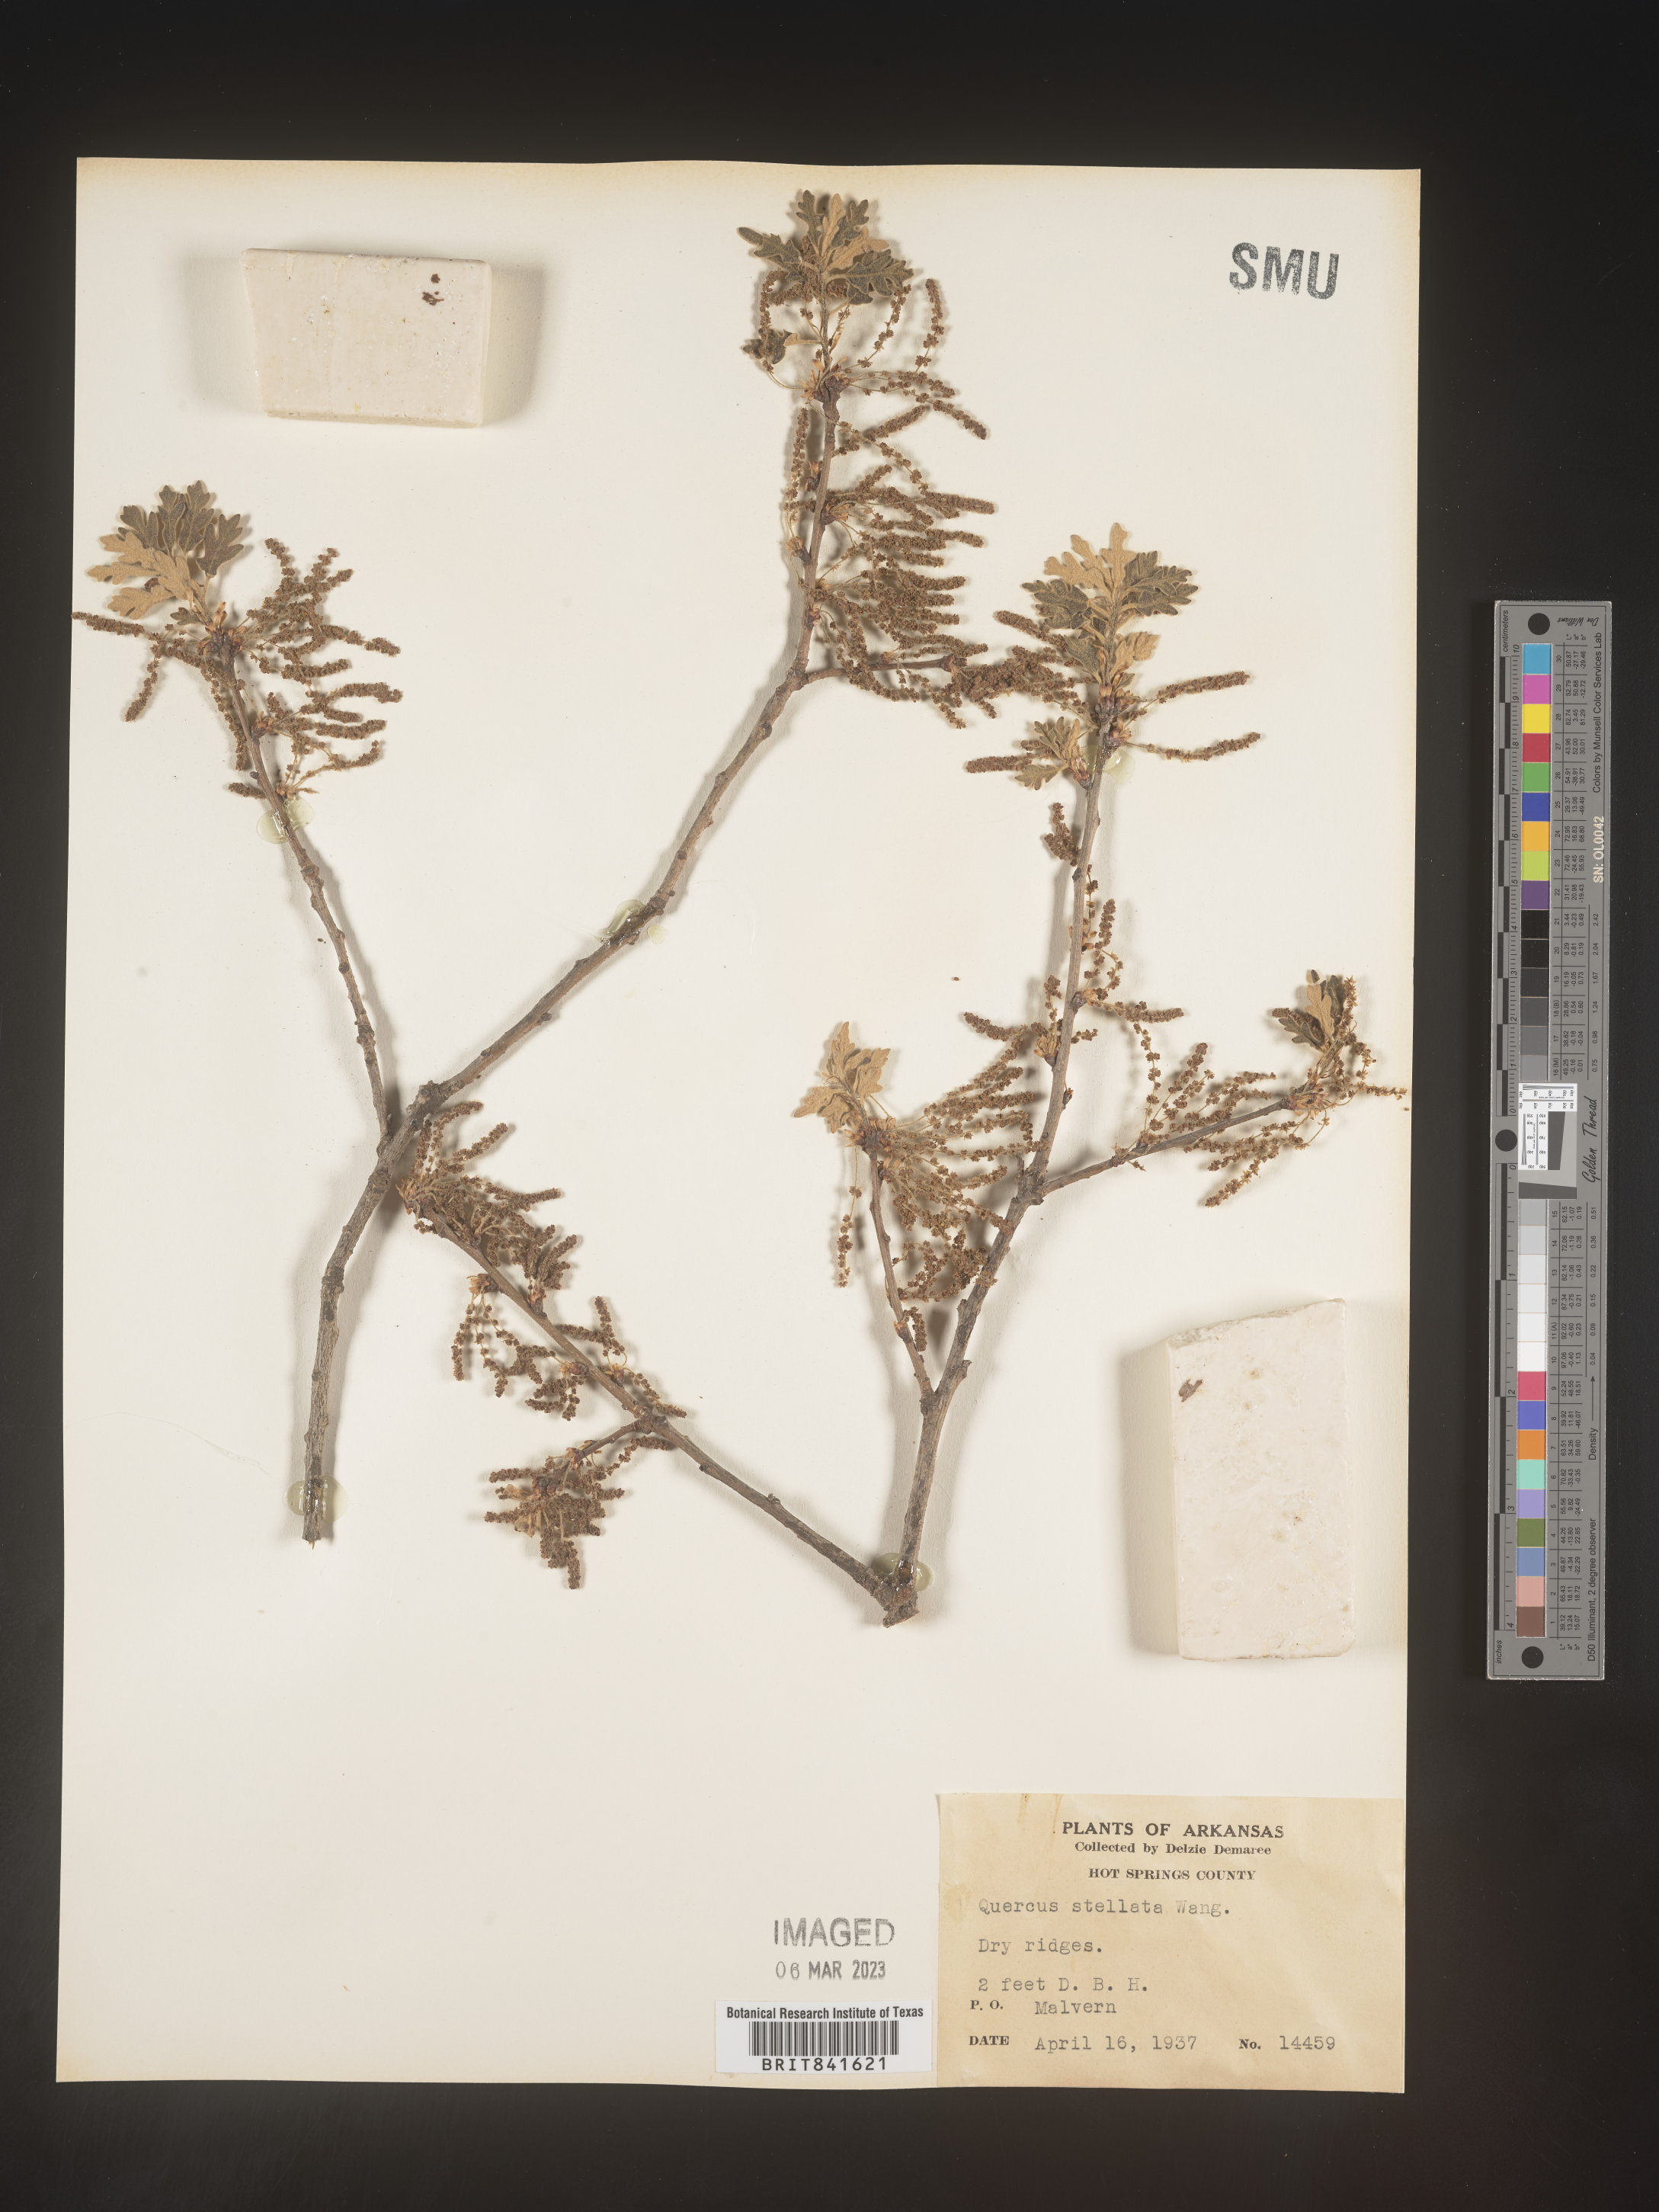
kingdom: Plantae
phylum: Tracheophyta
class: Magnoliopsida
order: Fagales
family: Fagaceae
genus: Quercus
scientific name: Quercus stellata
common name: Post oak
